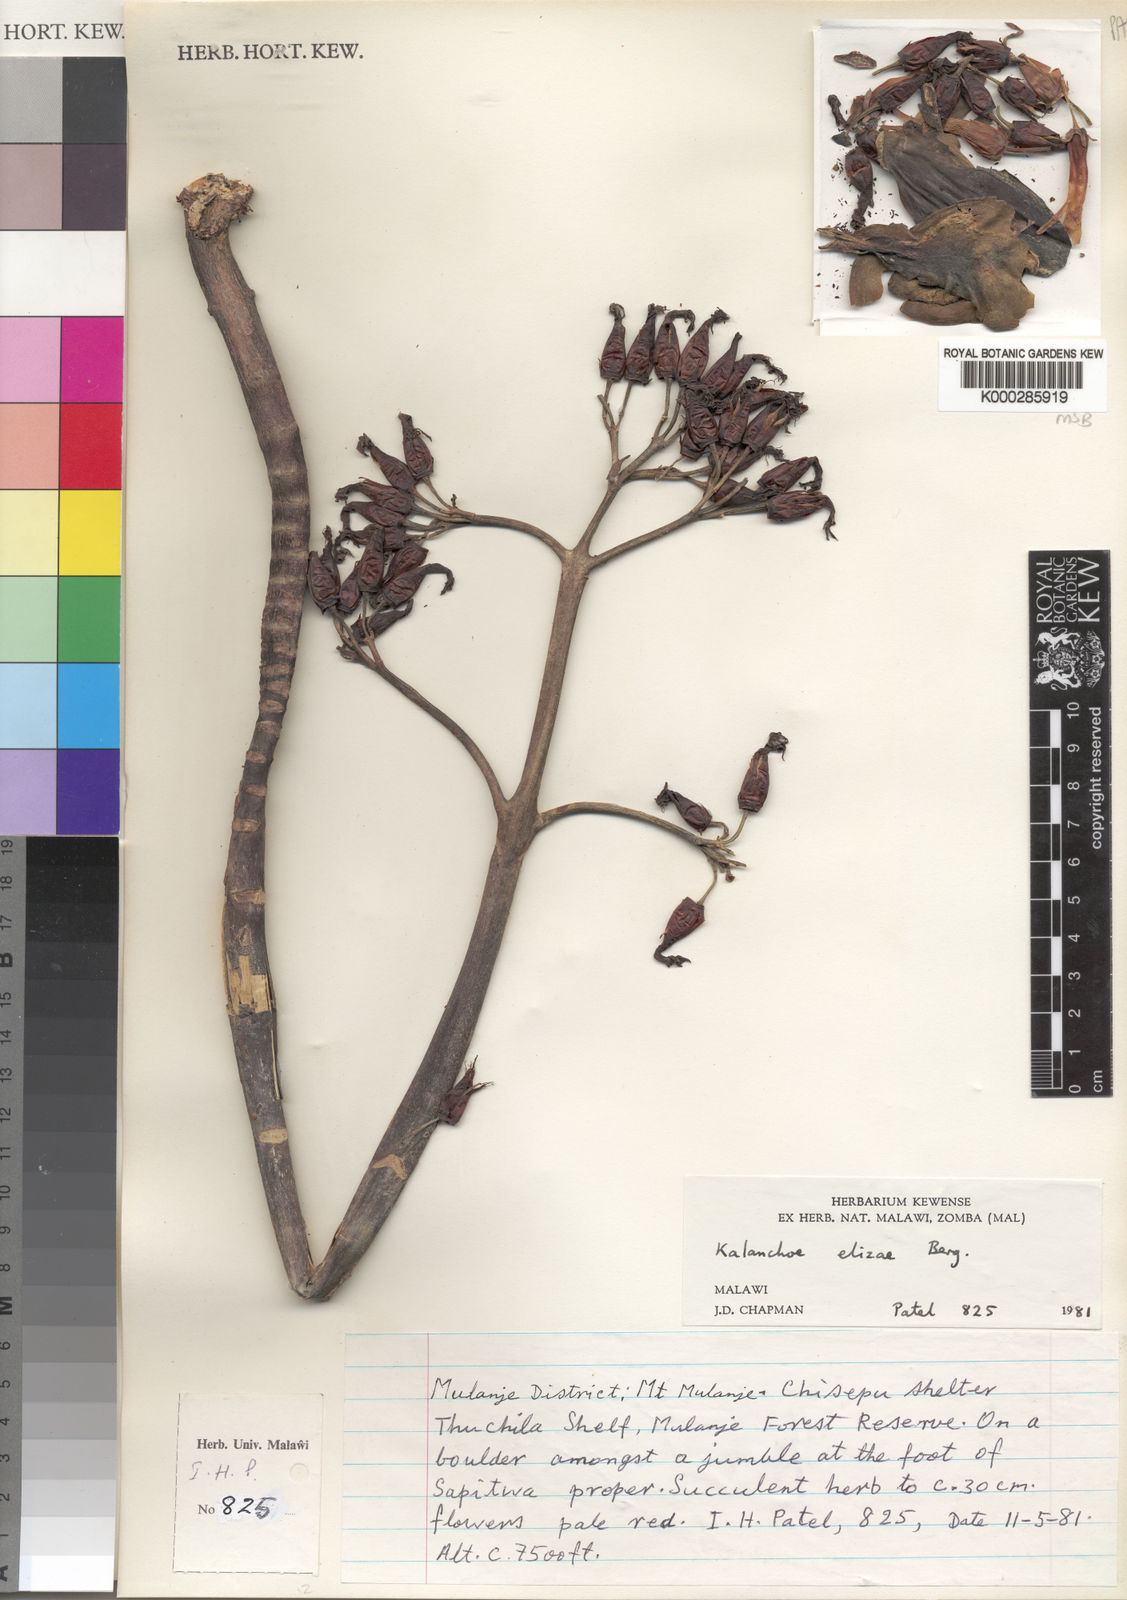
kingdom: Plantae
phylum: Tracheophyta
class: Magnoliopsida
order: Saxifragales
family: Crassulaceae
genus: Kalanchoe
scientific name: Kalanchoe elizae
